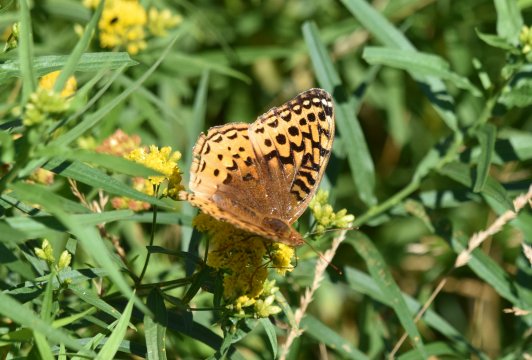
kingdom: Animalia
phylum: Arthropoda
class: Insecta
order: Lepidoptera
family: Nymphalidae
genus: Speyeria
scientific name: Speyeria cybele
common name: Great Spangled Fritillary
